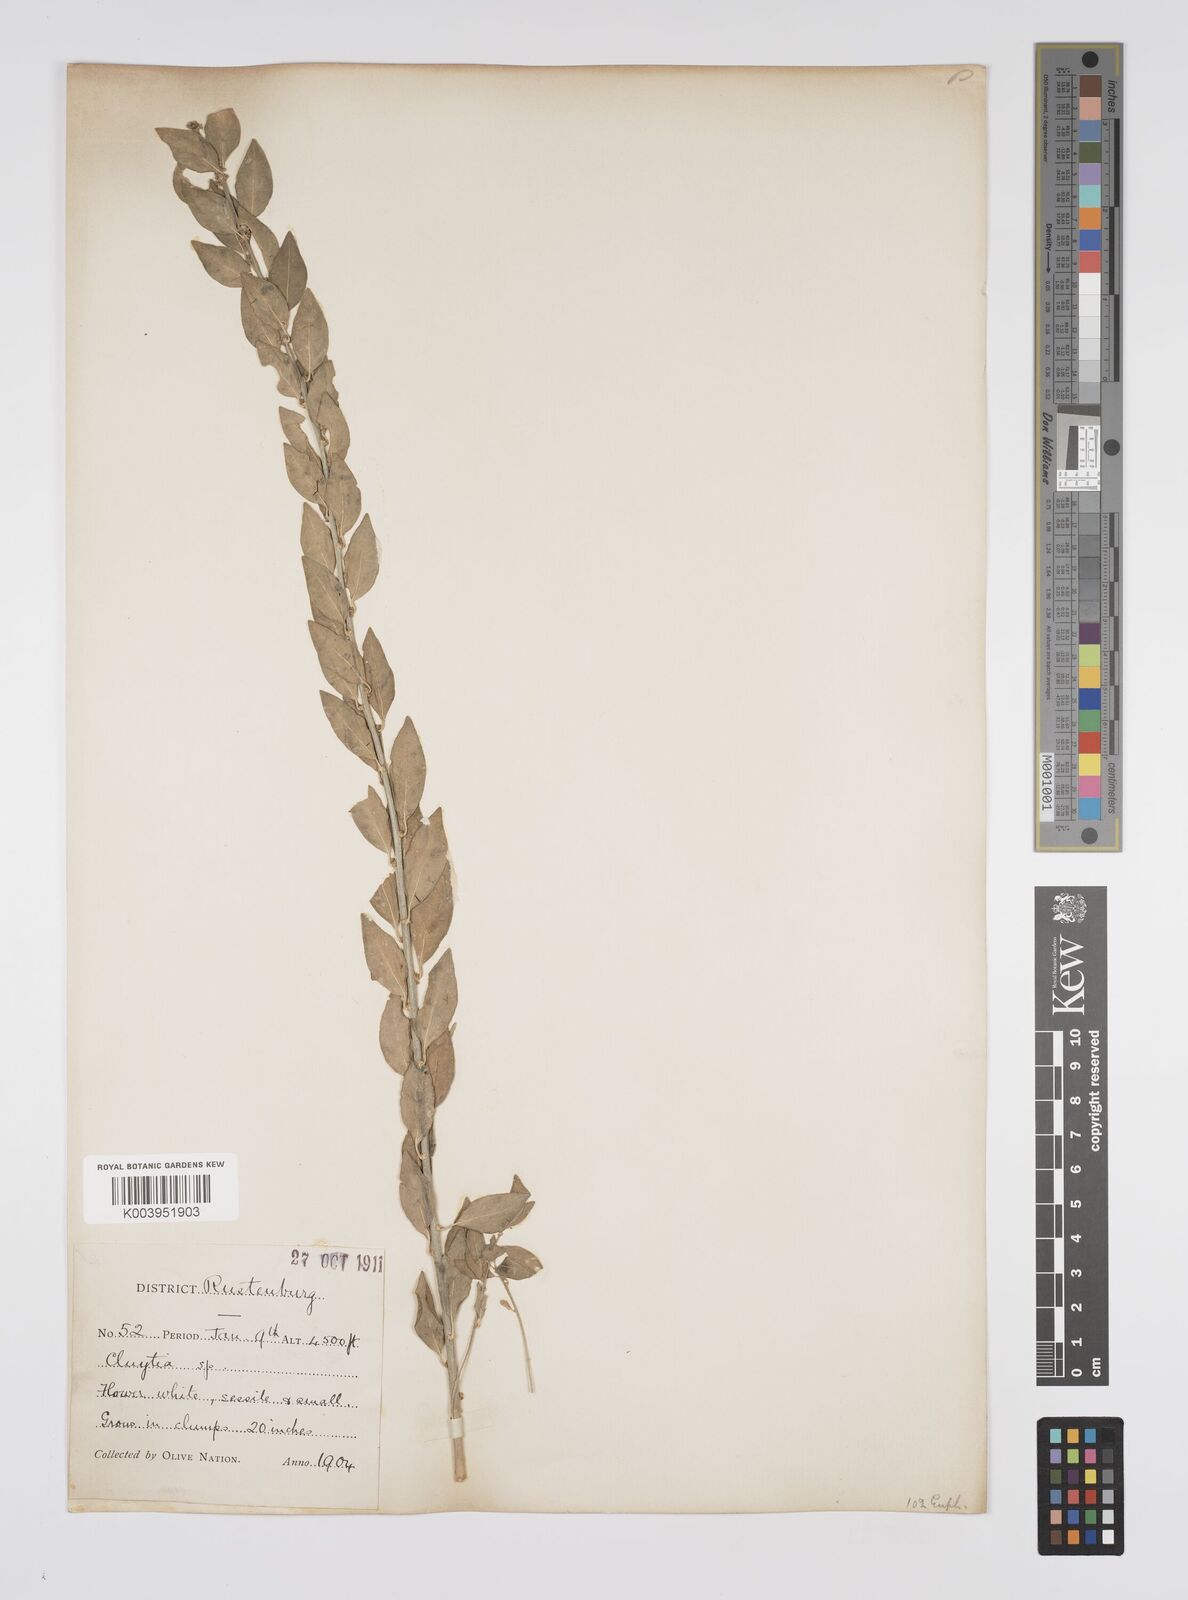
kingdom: Plantae
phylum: Tracheophyta
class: Magnoliopsida
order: Malpighiales
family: Peraceae
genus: Clutia
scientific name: Clutia galpinii
